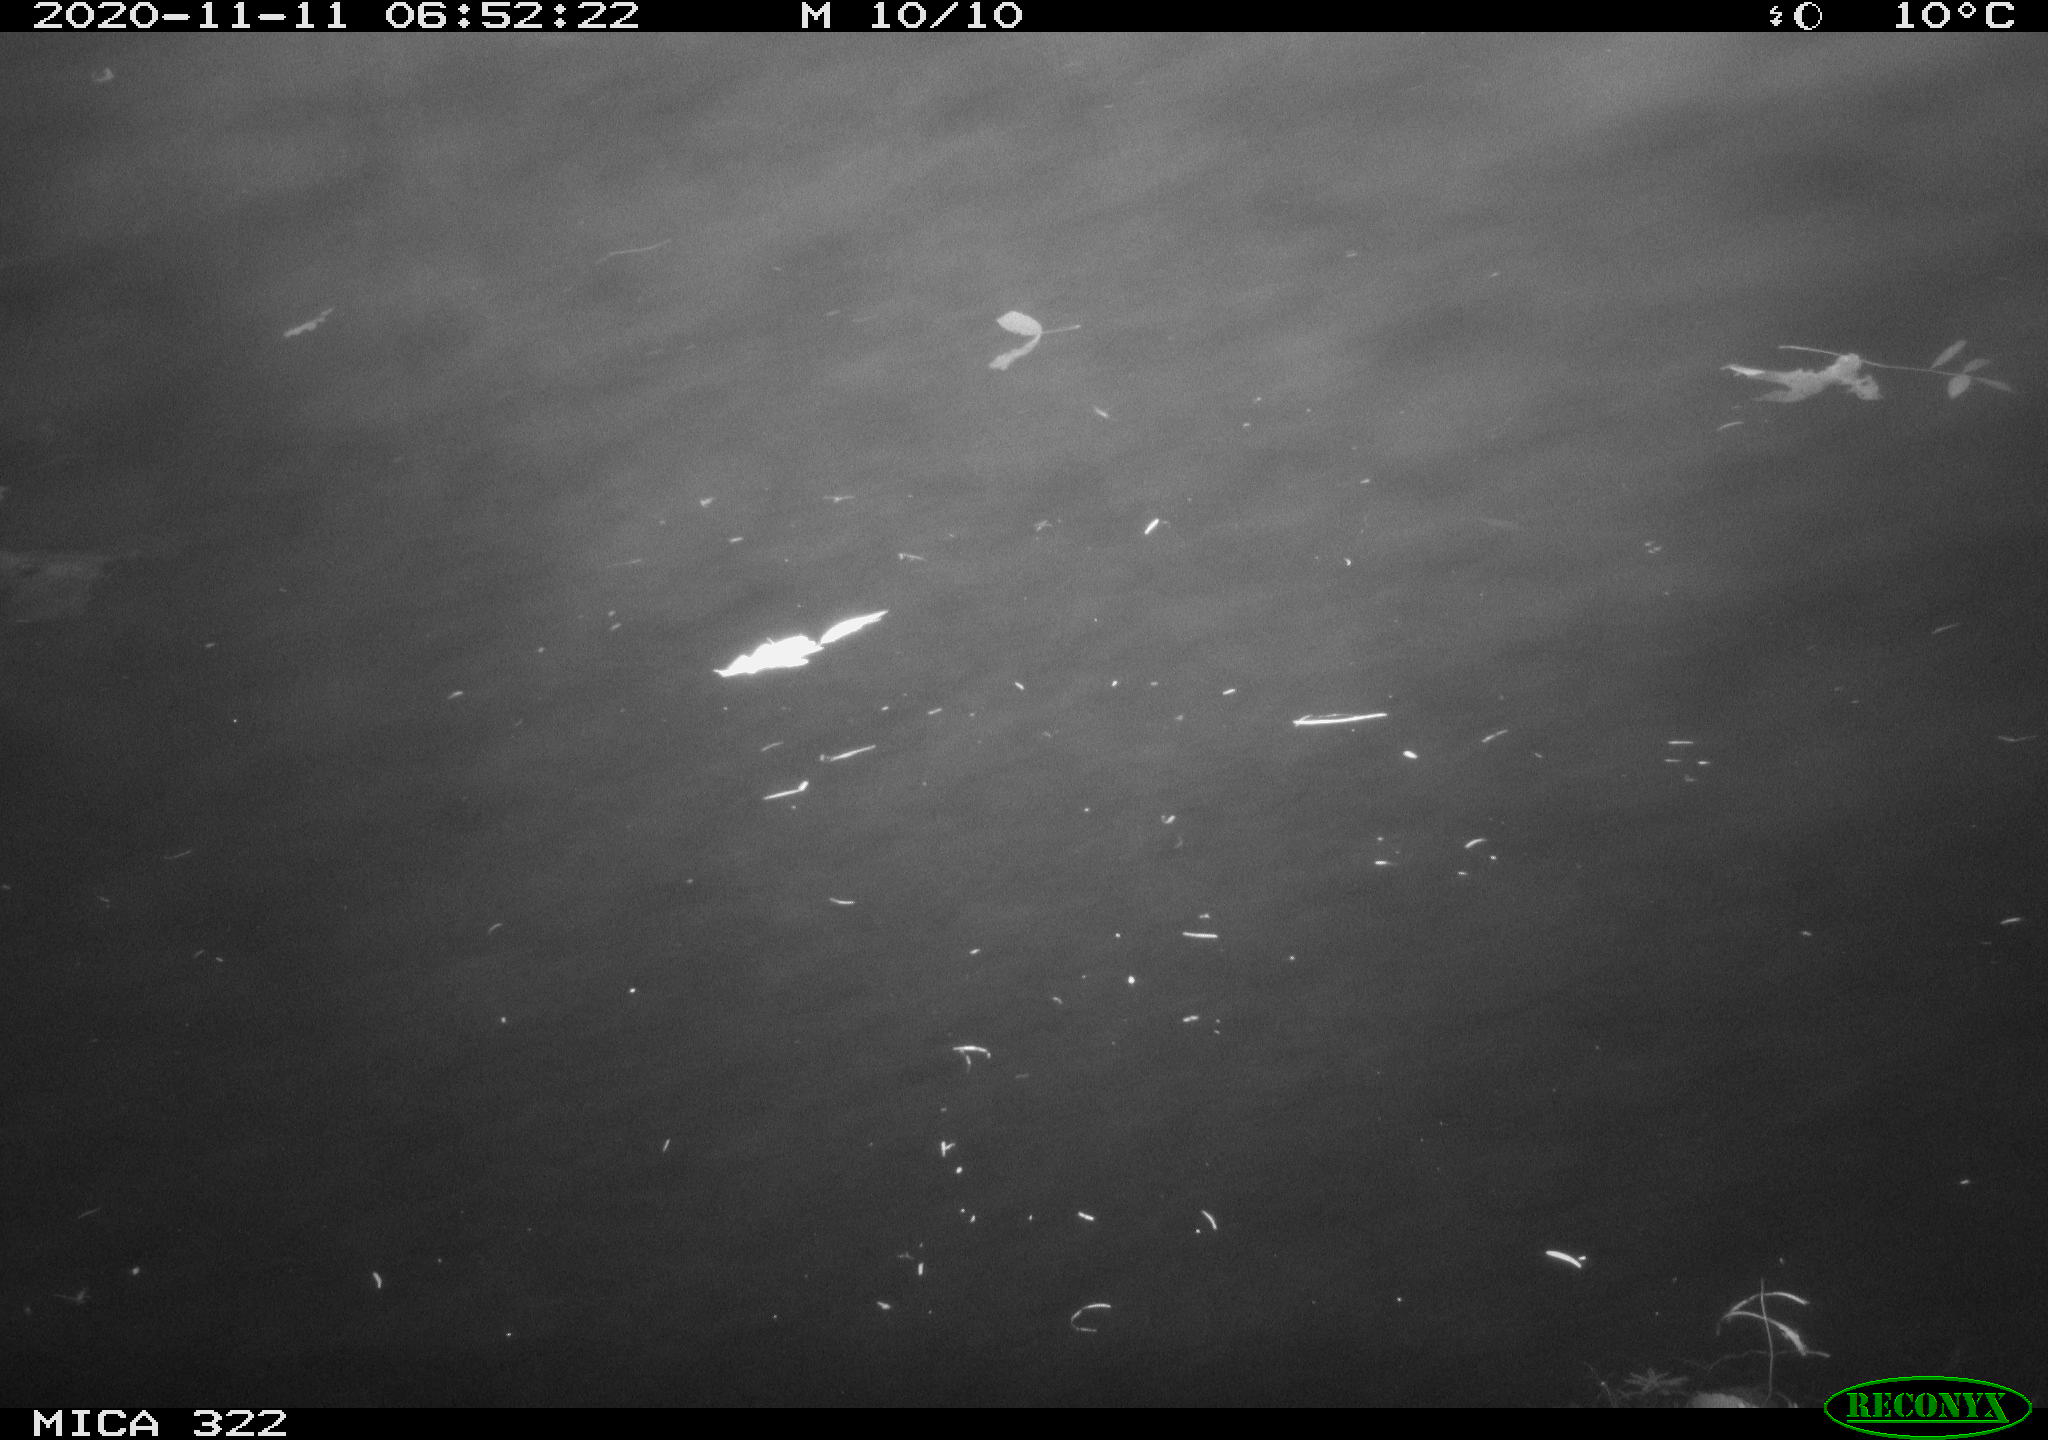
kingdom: Animalia
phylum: Chordata
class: Aves
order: Anseriformes
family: Anatidae
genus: Mareca
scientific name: Mareca strepera
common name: Gadwall
